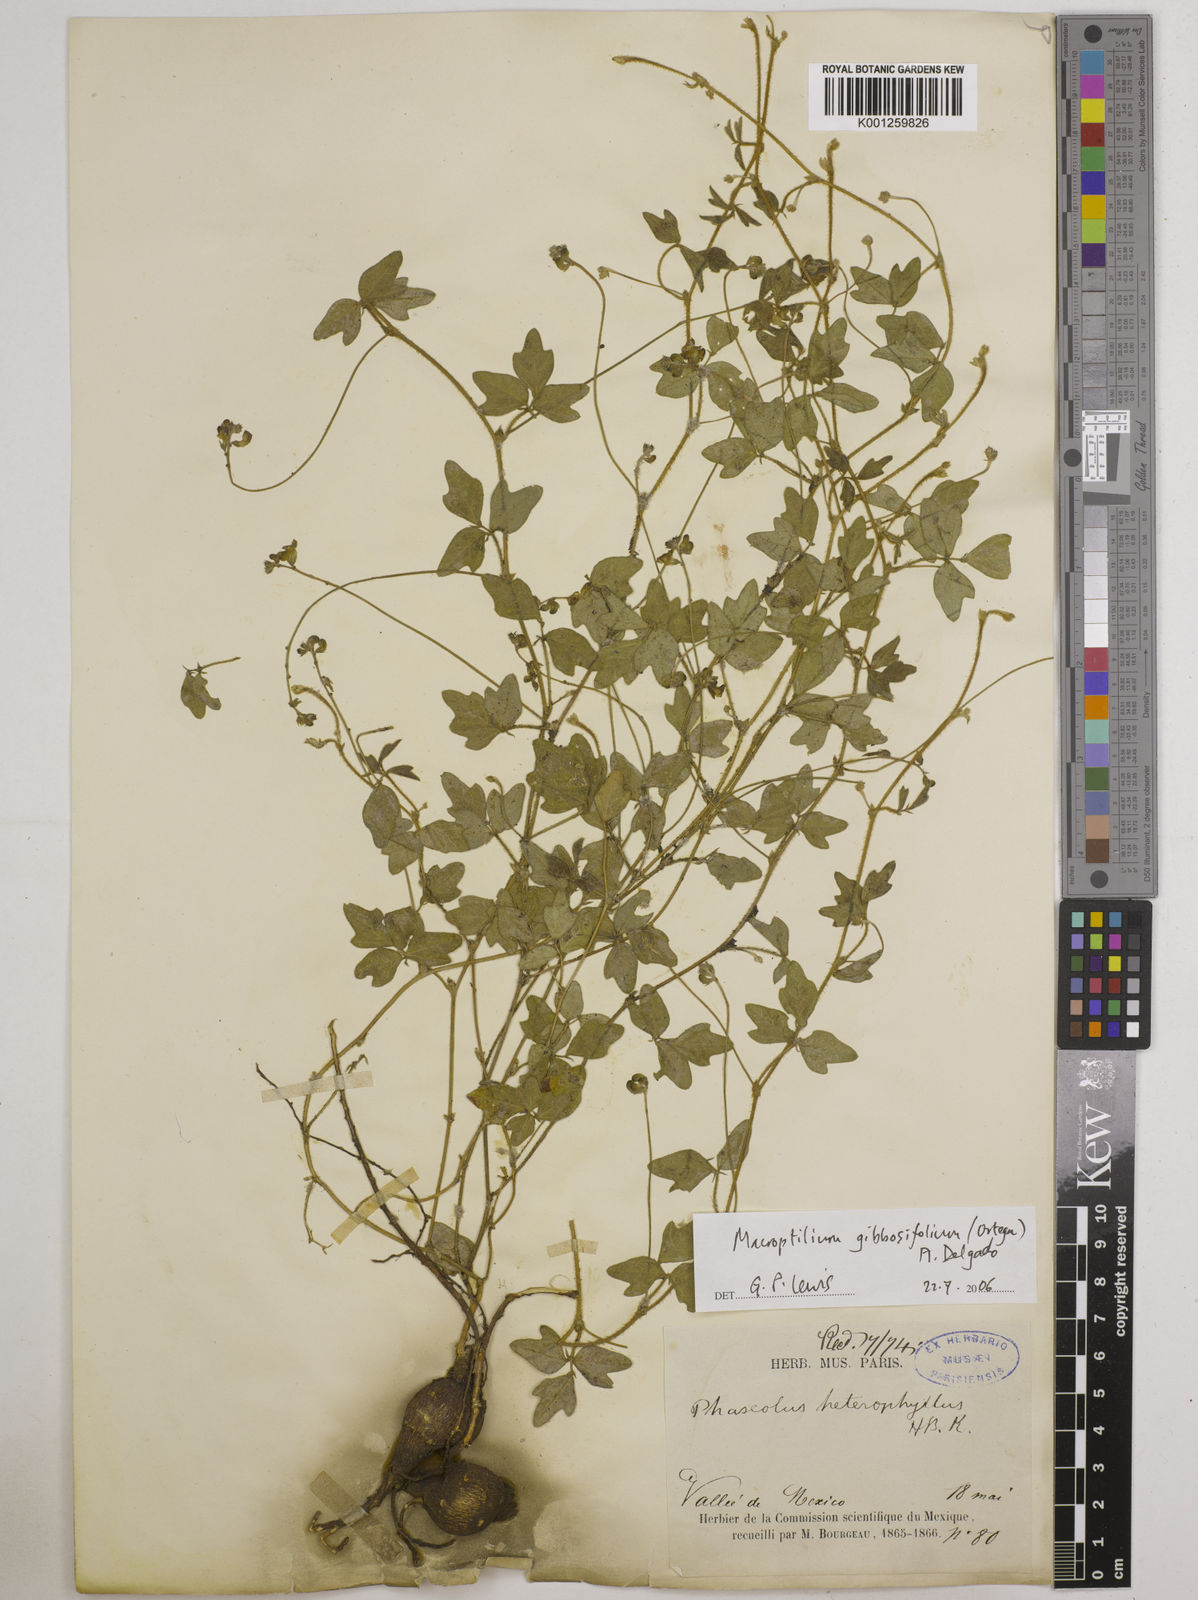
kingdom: Plantae
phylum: Tracheophyta
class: Magnoliopsida
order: Fabales
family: Fabaceae
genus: Macroptilium
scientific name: Macroptilium gibbosifolium
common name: Variableleaf bushbean
